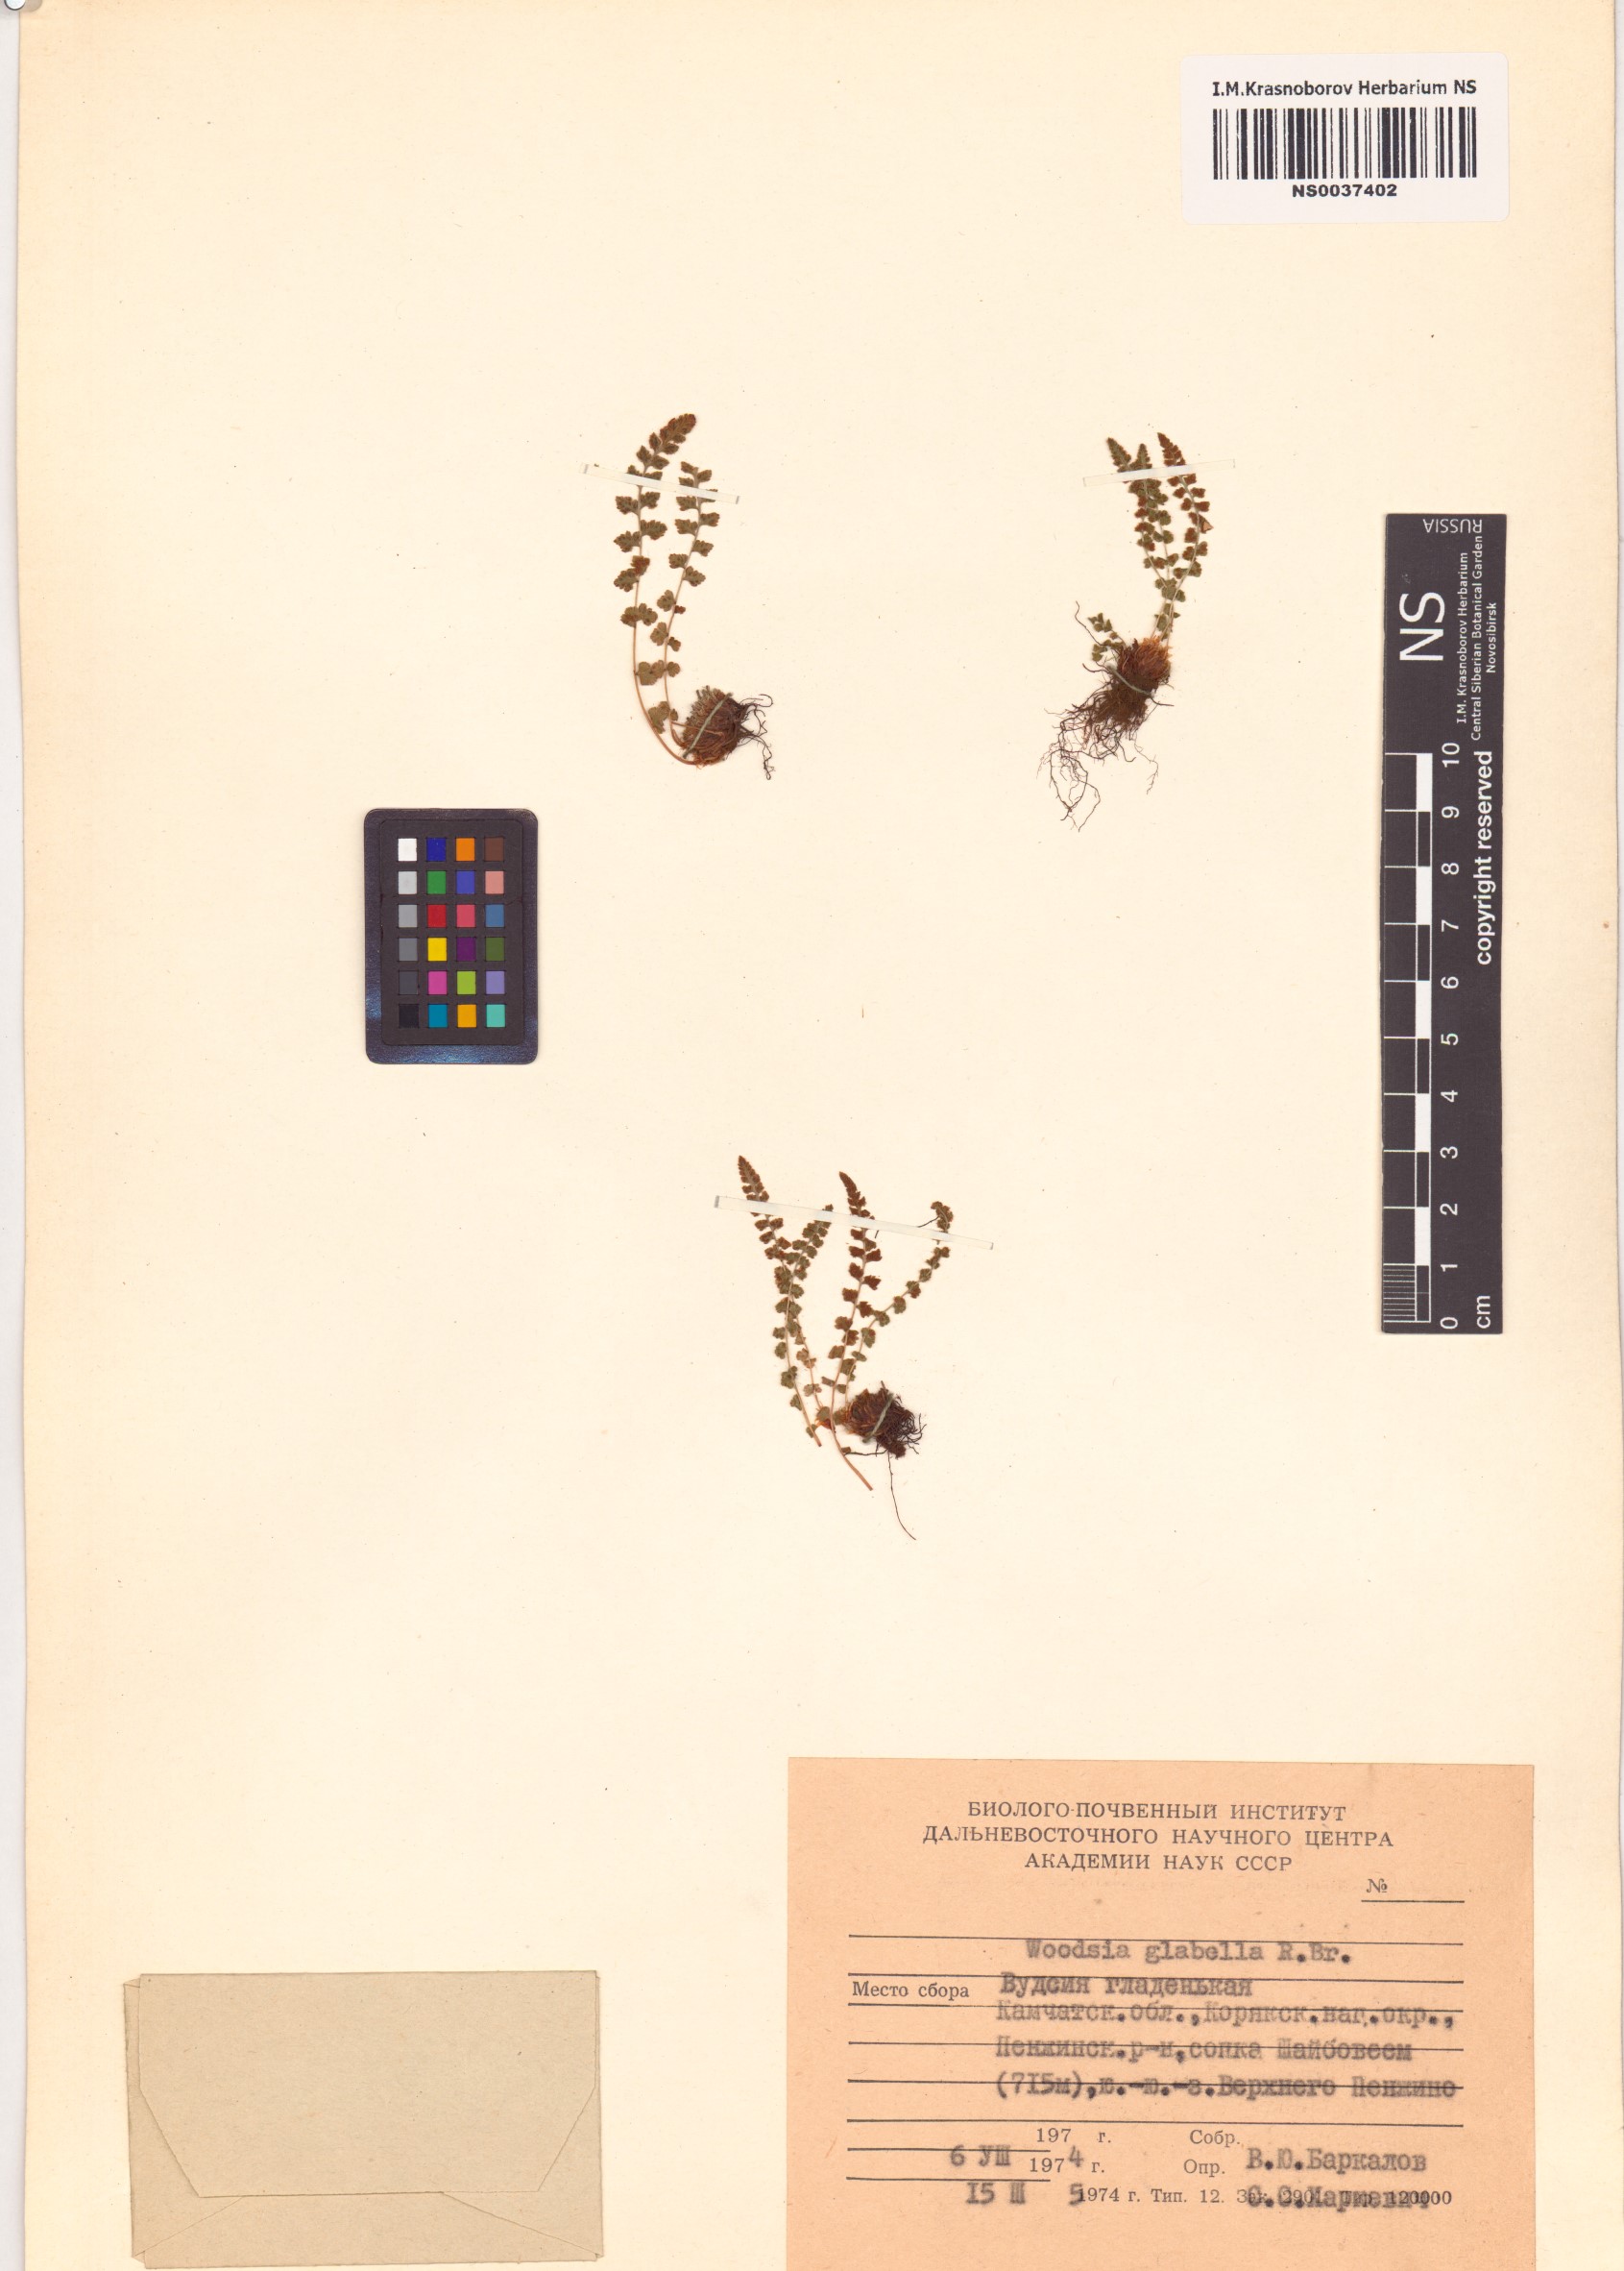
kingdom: Plantae
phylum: Tracheophyta
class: Polypodiopsida
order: Polypodiales
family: Woodsiaceae
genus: Woodsia
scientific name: Woodsia glabella
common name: Smooth woodsia
